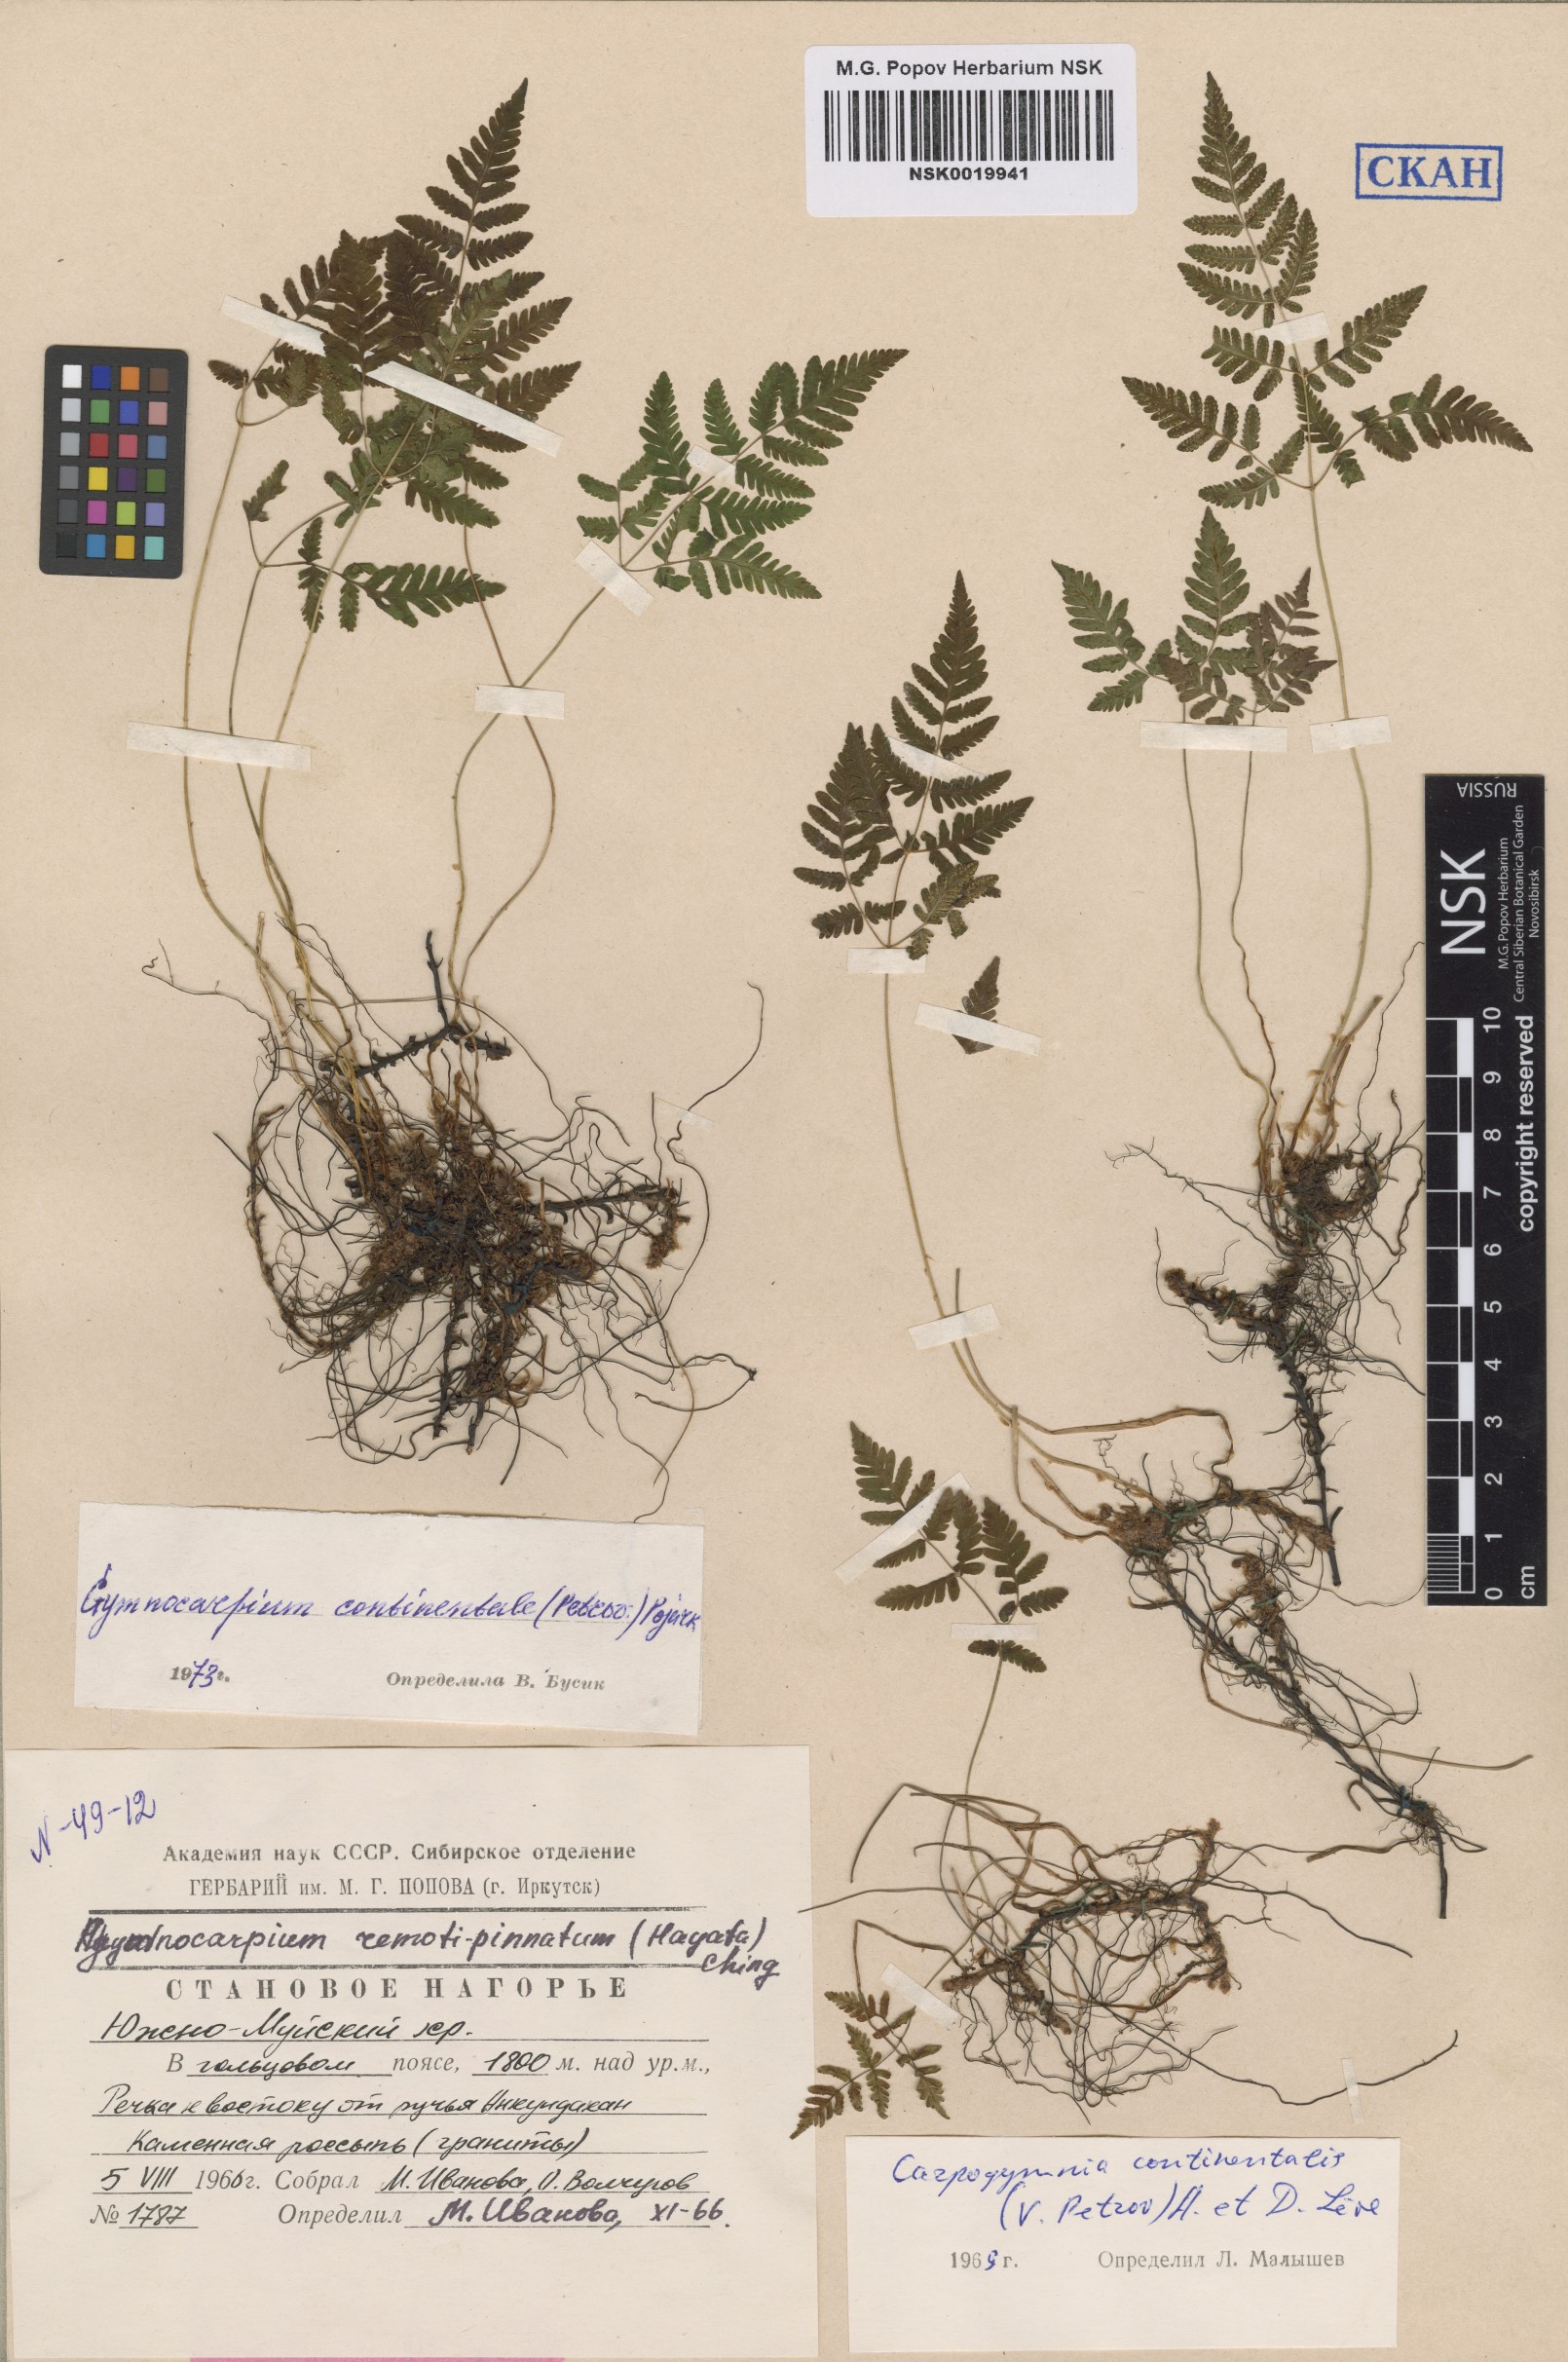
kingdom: Plantae
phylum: Tracheophyta
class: Polypodiopsida
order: Polypodiales
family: Cystopteridaceae
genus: Gymnocarpium
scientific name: Gymnocarpium continentale
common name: Asian oak fern
